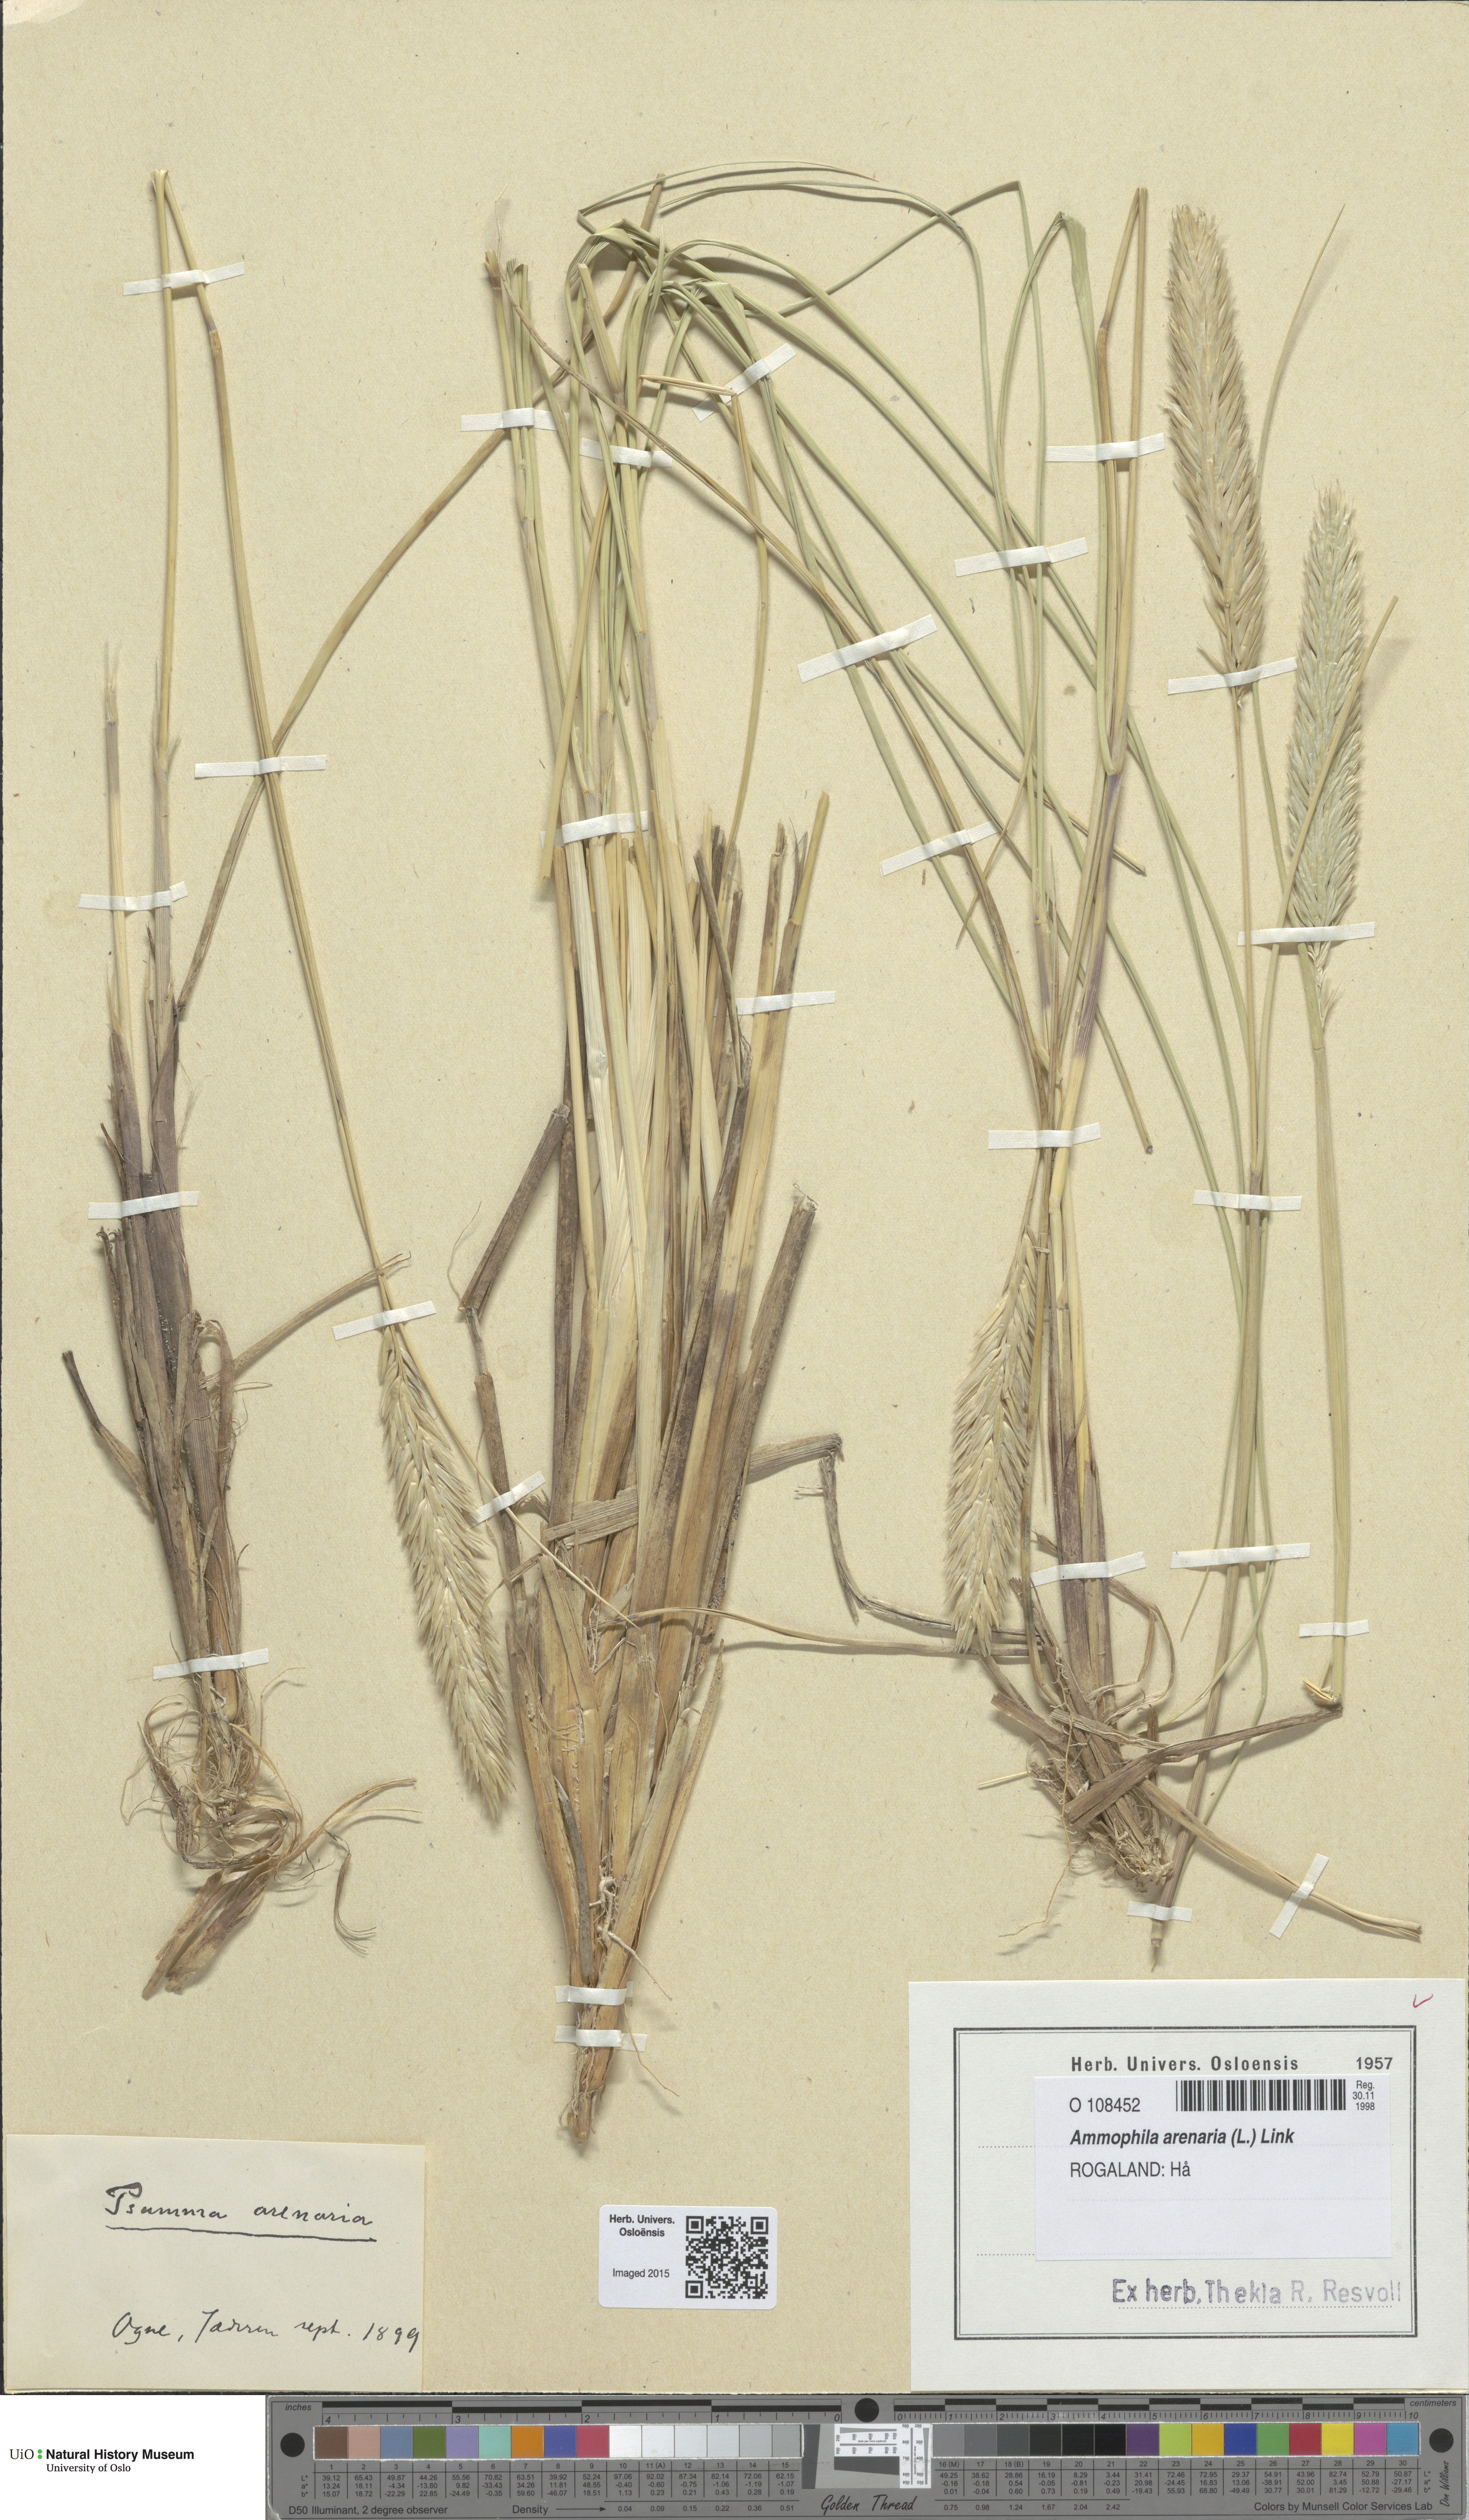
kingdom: Plantae
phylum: Tracheophyta
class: Liliopsida
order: Poales
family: Poaceae
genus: Calamagrostis
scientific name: Calamagrostis arenaria
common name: European beachgrass
